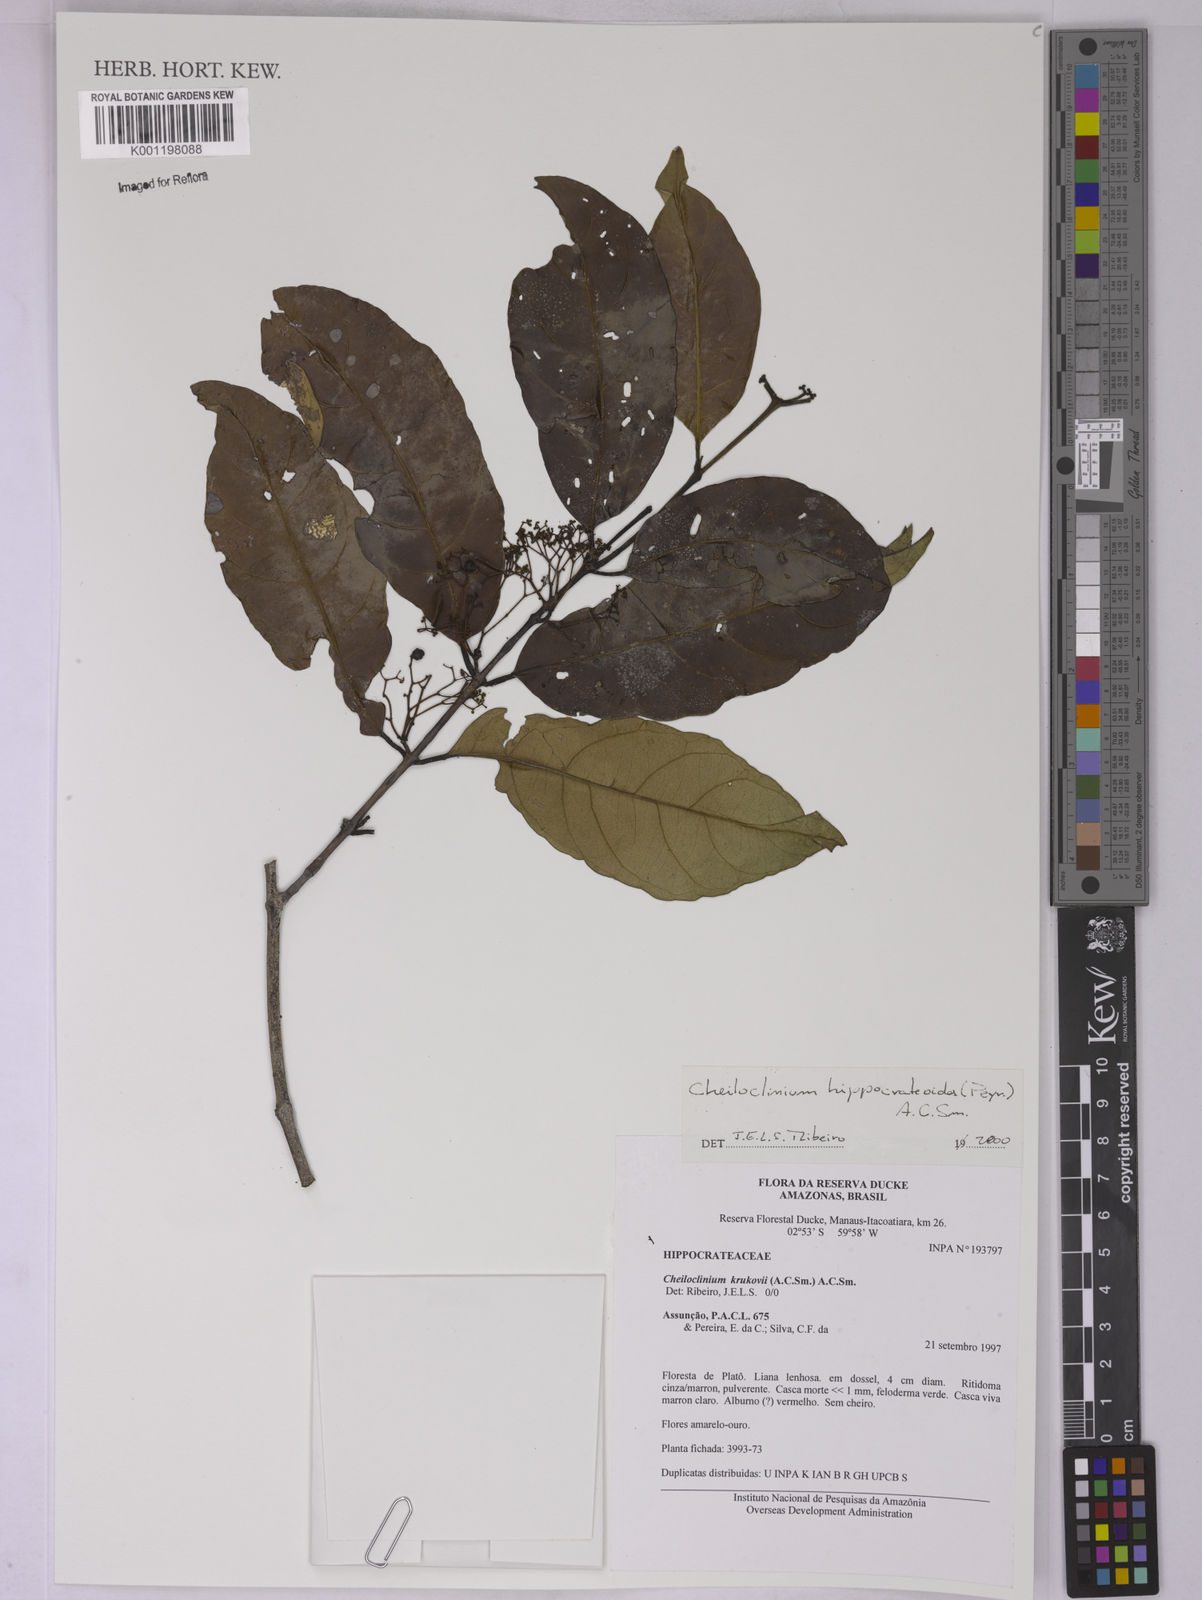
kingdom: Plantae
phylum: Tracheophyta
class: Magnoliopsida
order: Celastrales
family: Celastraceae
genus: Cheiloclinium
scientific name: Cheiloclinium hippocrateoides
